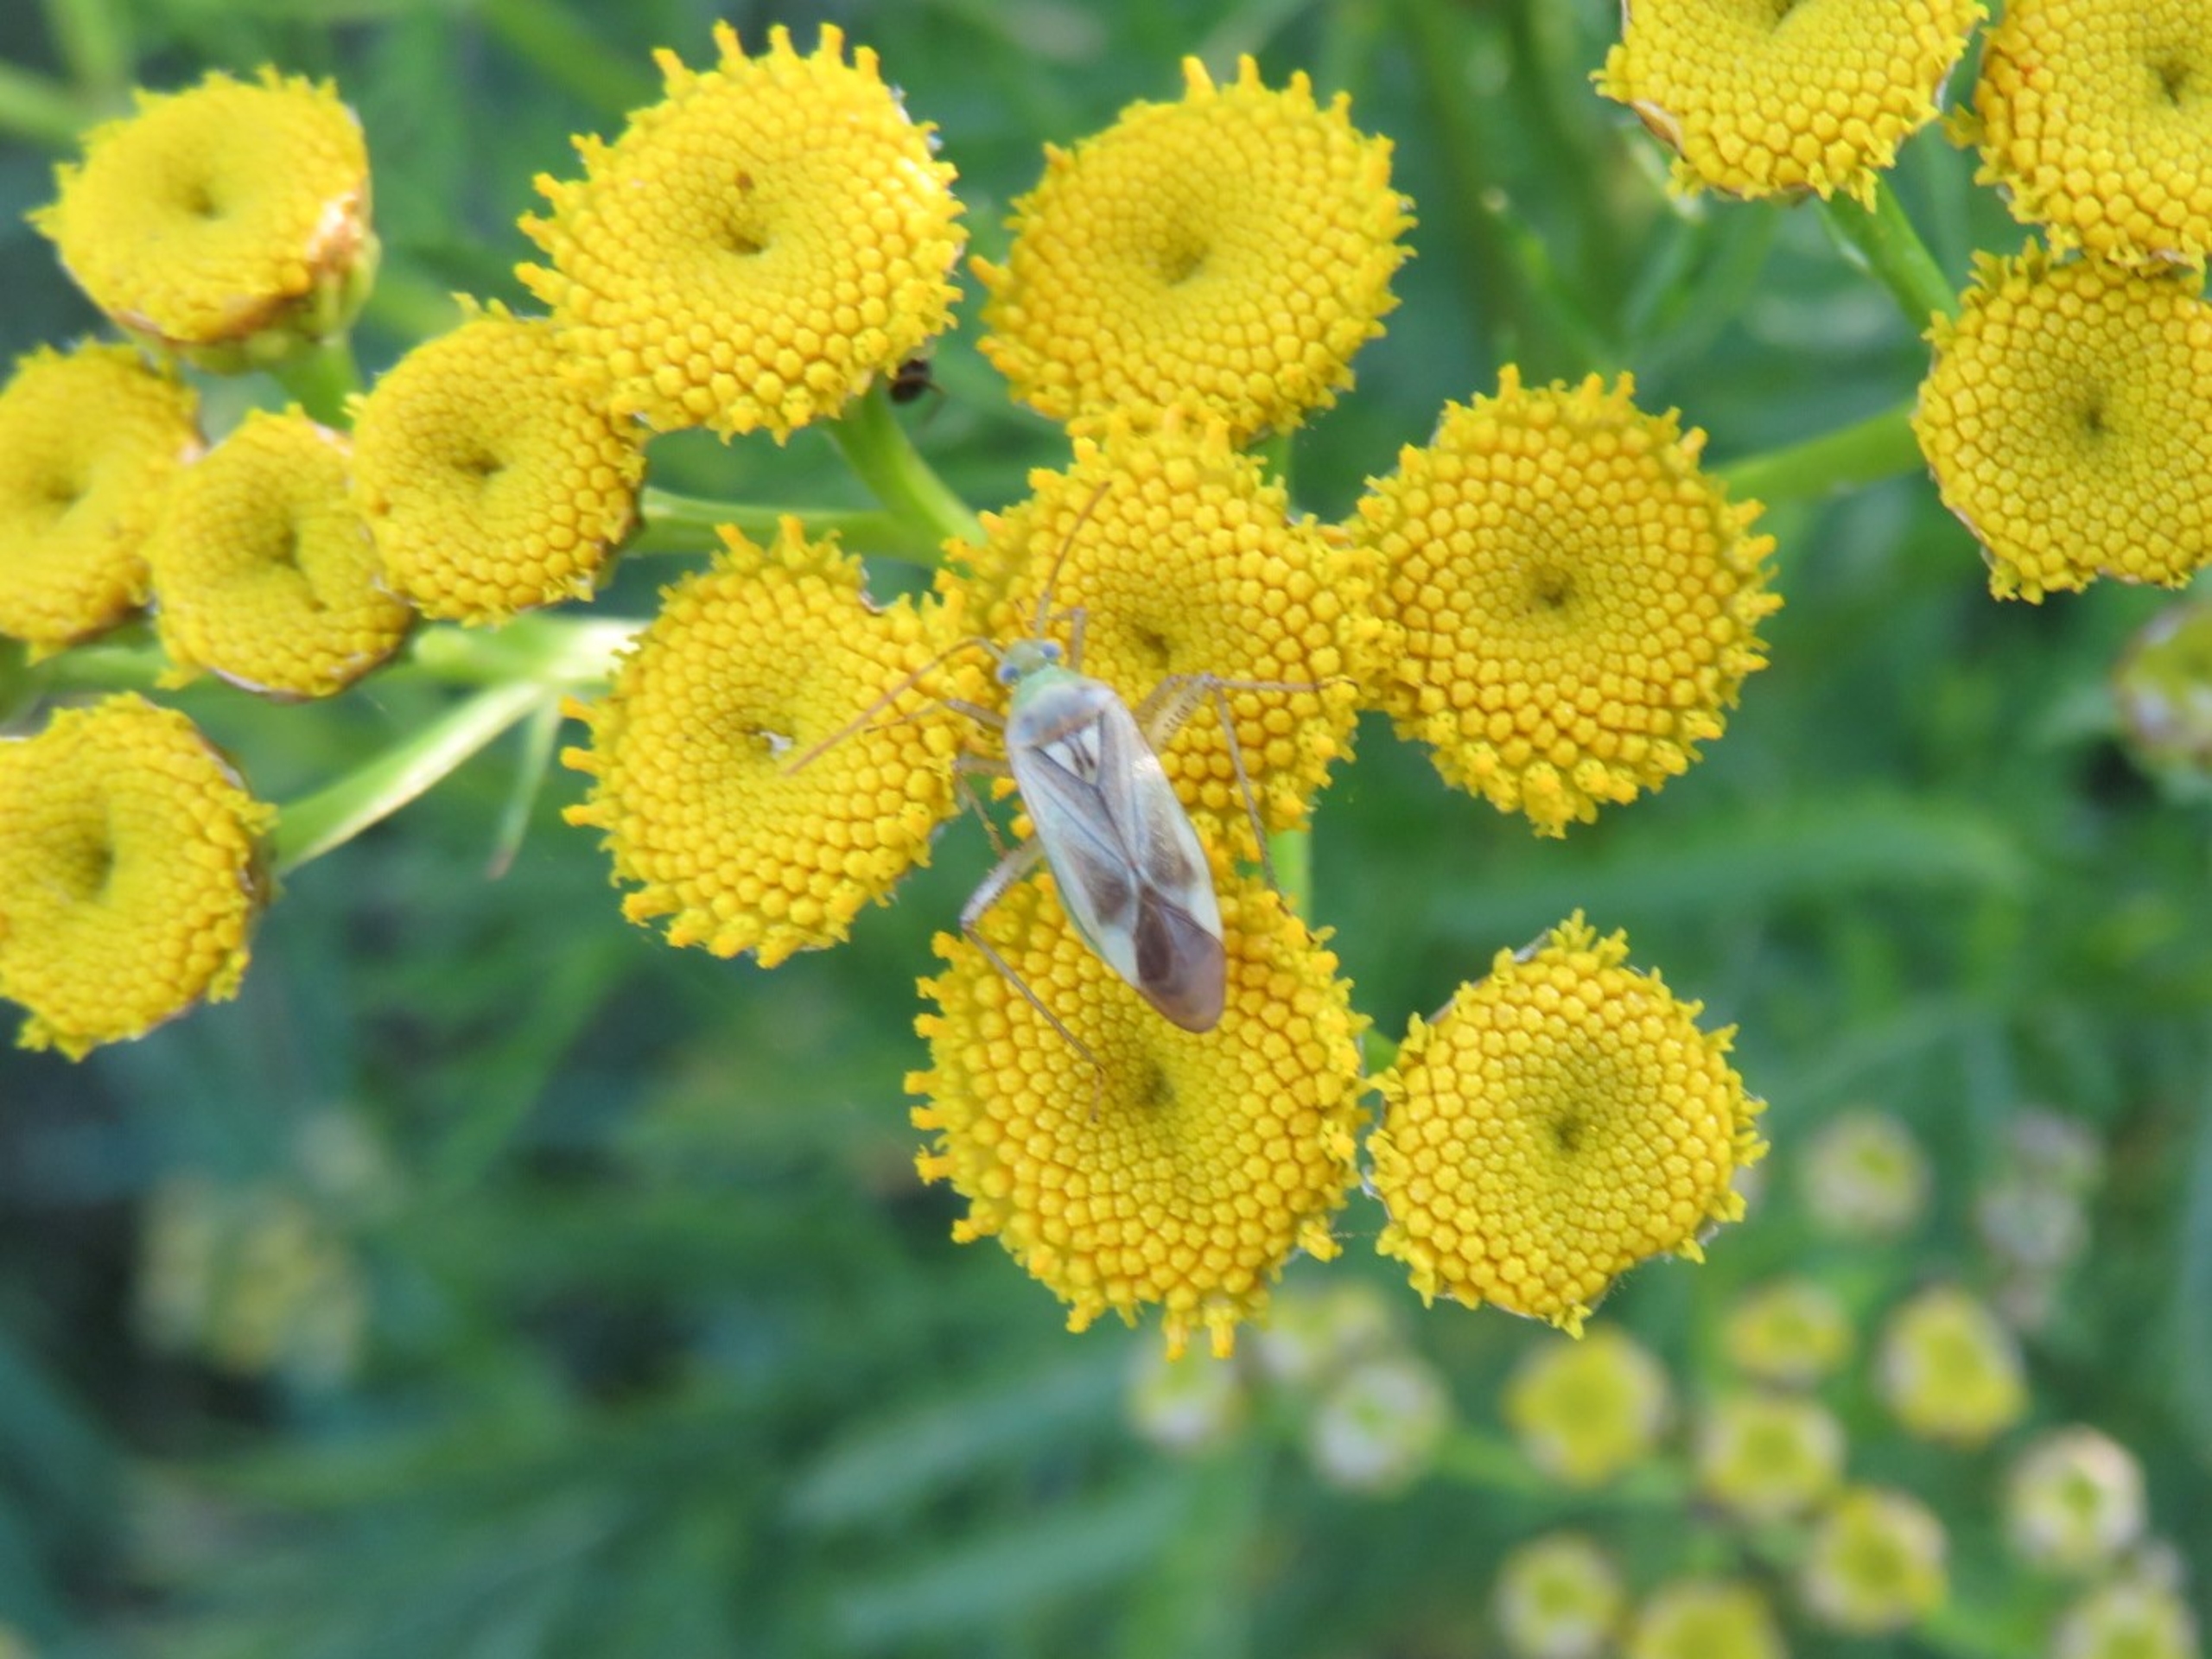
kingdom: Animalia
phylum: Arthropoda
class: Insecta
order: Hemiptera
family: Miridae
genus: Adelphocoris
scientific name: Adelphocoris lineolatus
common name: Lucernetæge
